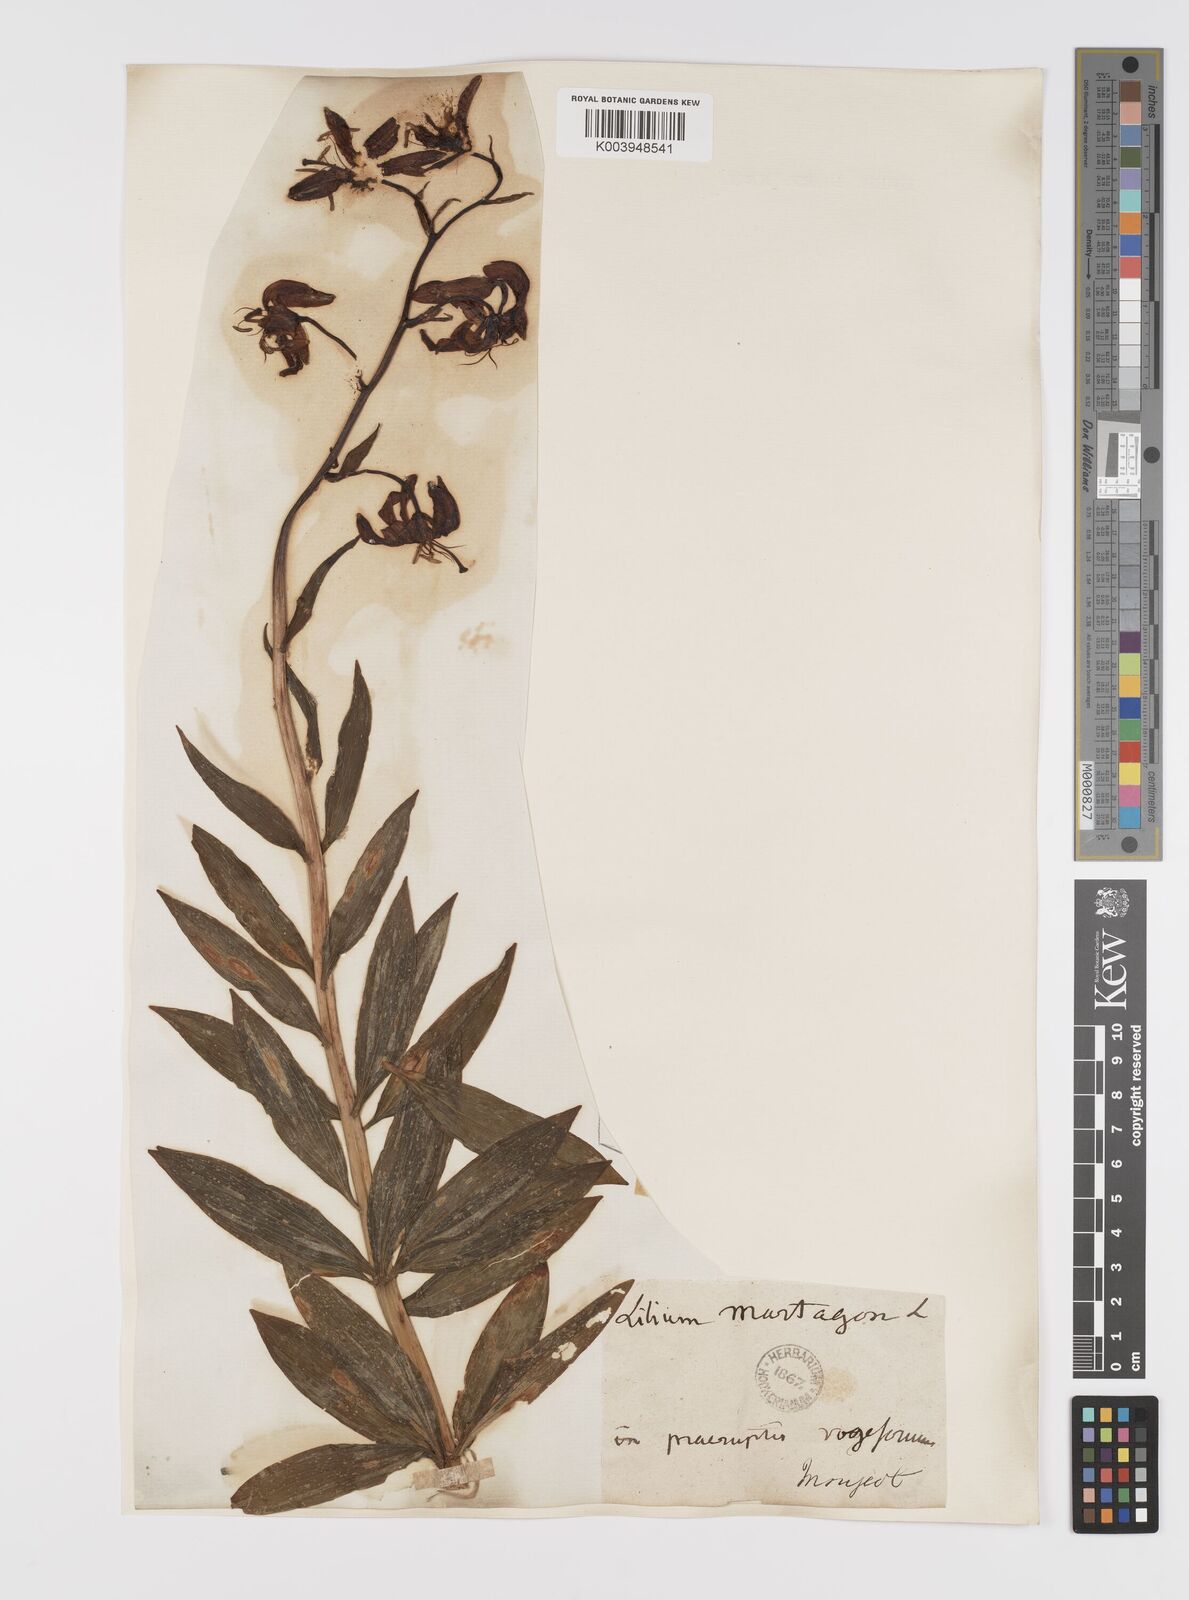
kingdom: Plantae
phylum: Tracheophyta
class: Liliopsida
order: Liliales
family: Liliaceae
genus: Lilium
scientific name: Lilium martagon
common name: Martagon lily
